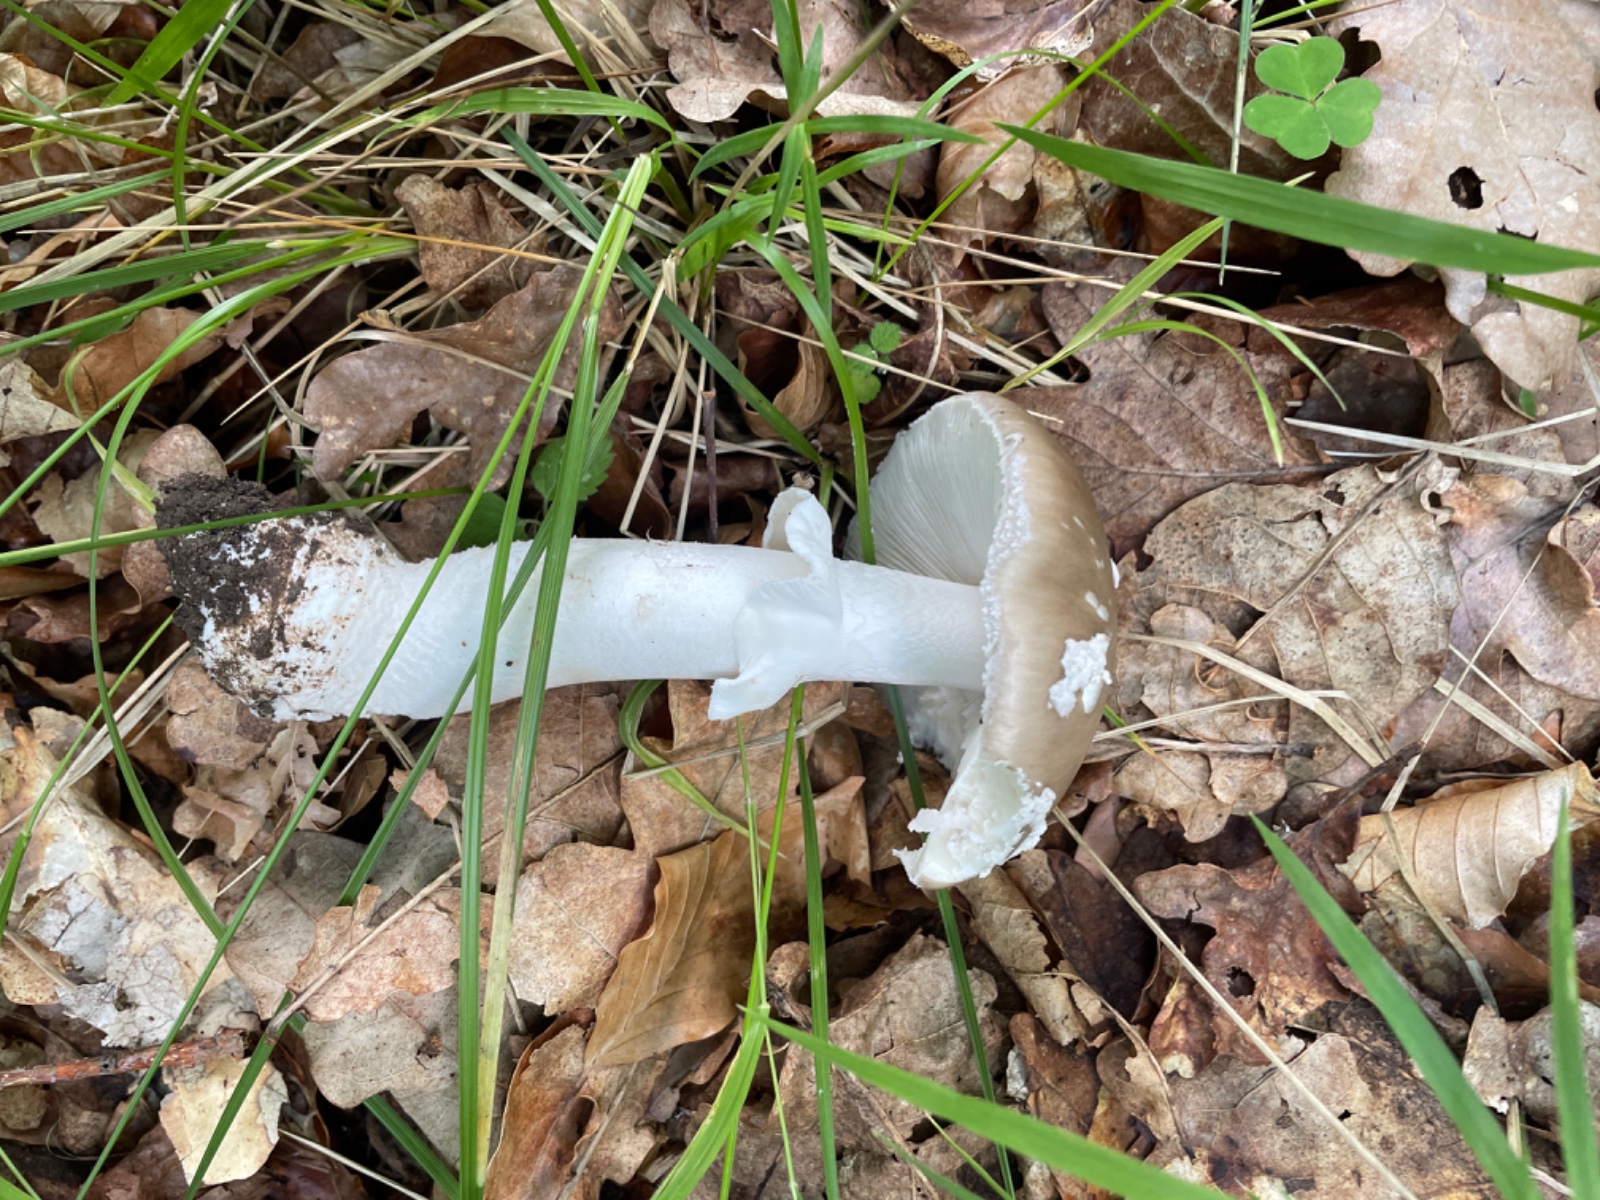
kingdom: Fungi
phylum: Basidiomycota
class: Agaricomycetes
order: Agaricales
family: Amanitaceae
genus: Amanita
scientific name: Amanita
